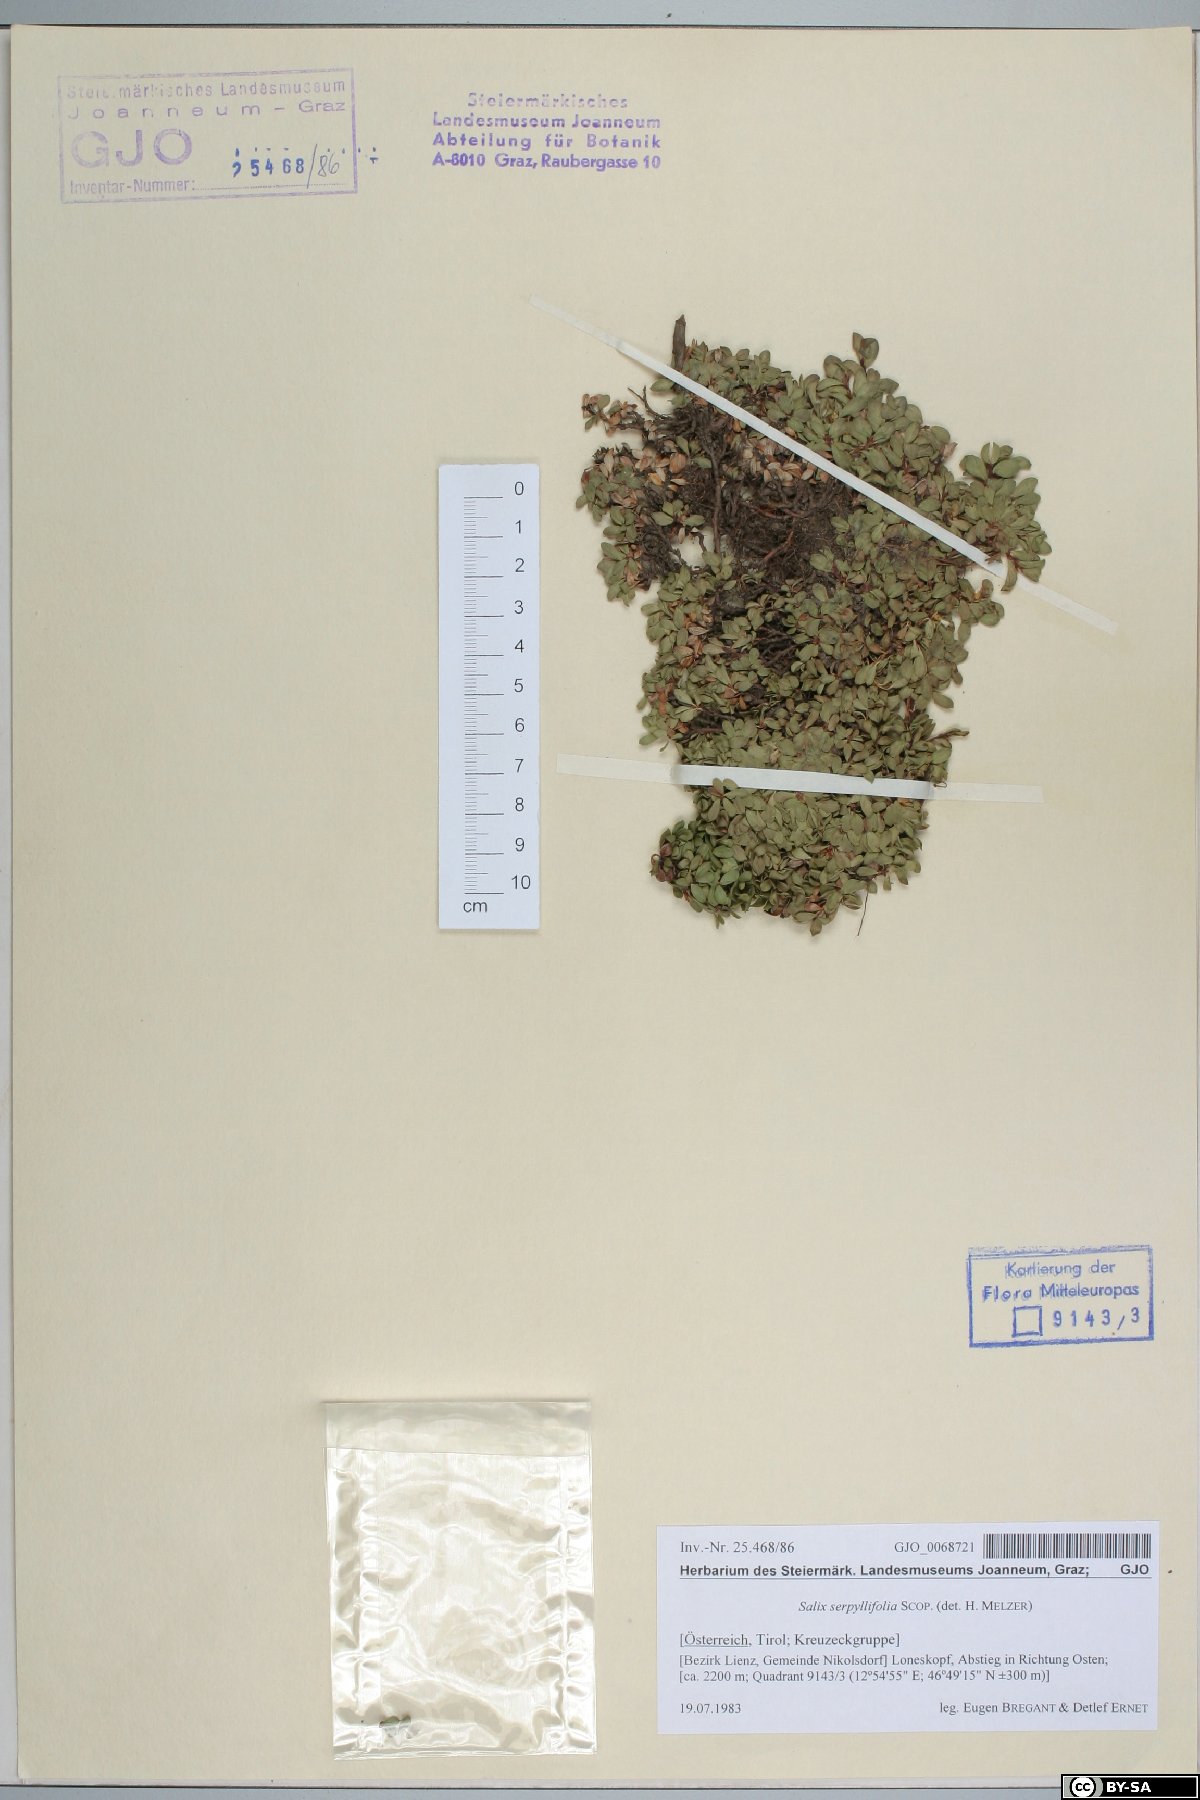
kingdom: Plantae
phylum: Tracheophyta
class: Magnoliopsida
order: Malpighiales
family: Salicaceae
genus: Salix
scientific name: Salix serpillifolia
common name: Thyme-leaf willow
